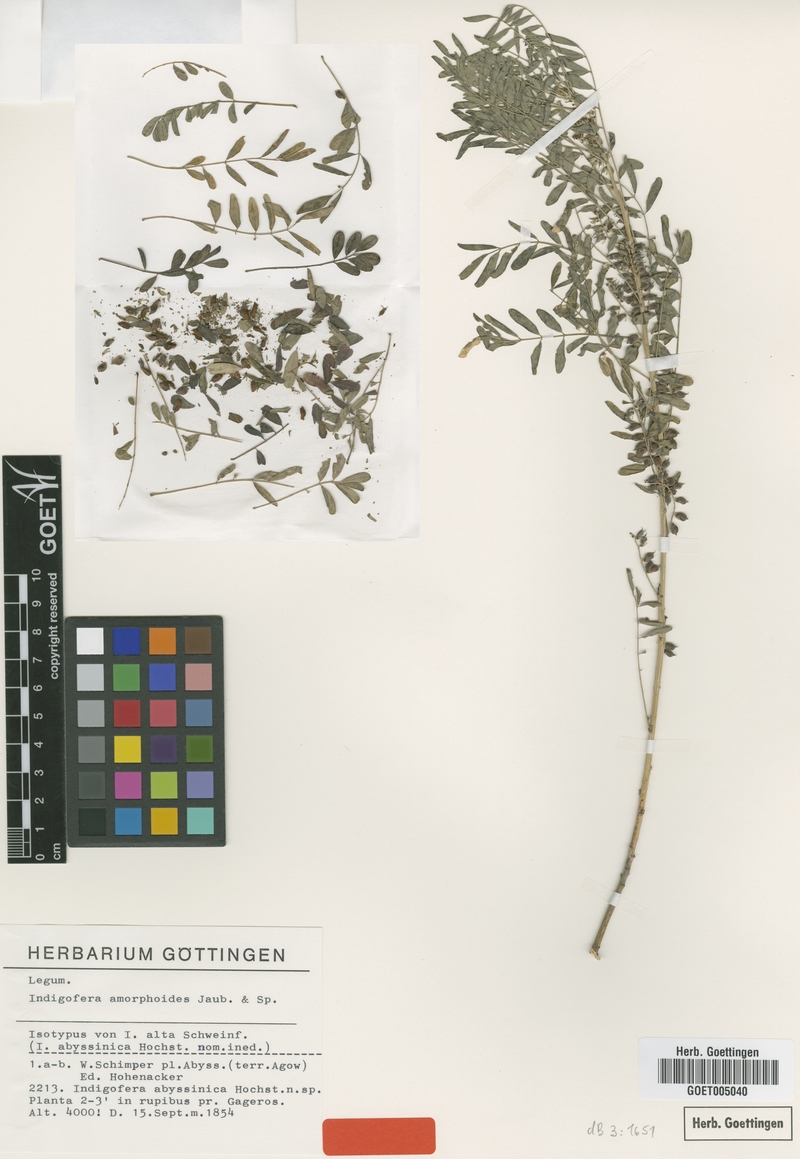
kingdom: Plantae
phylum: Tracheophyta
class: Magnoliopsida
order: Fabales
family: Fabaceae
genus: Indigofera
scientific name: Indigofera amorphoides
